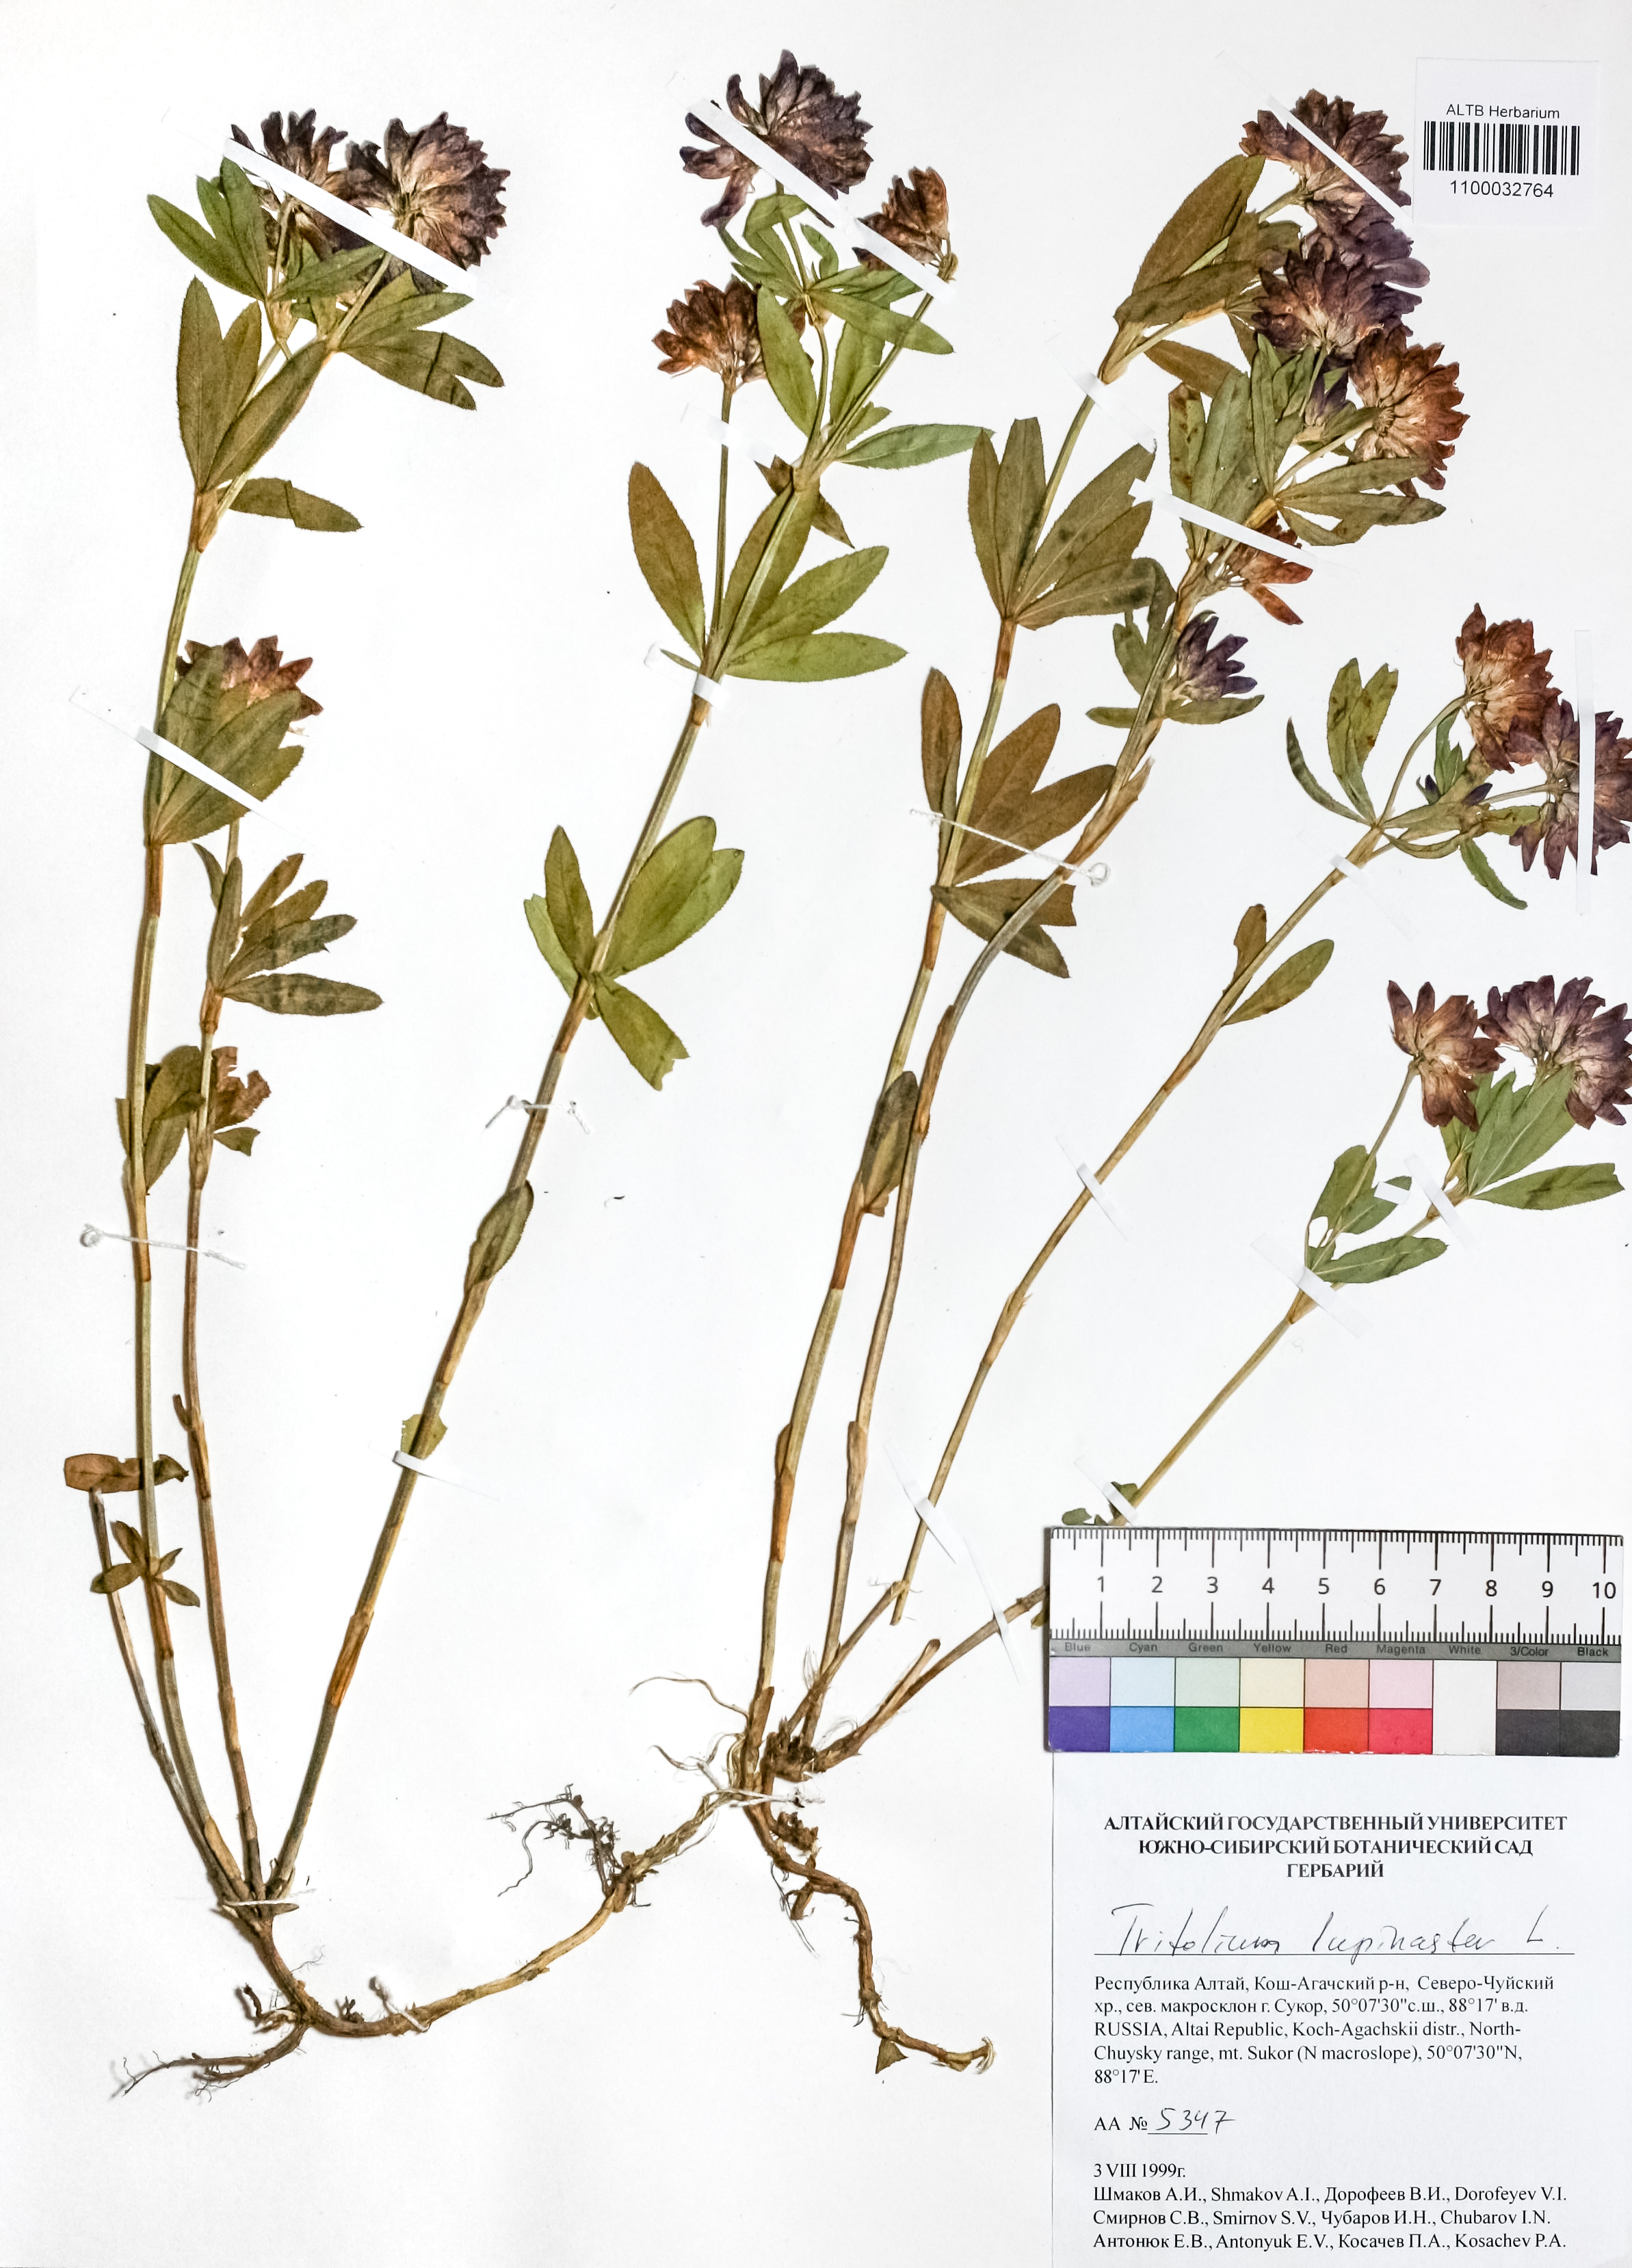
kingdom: Plantae
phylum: Tracheophyta
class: Magnoliopsida
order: Fabales
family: Fabaceae
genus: Trifolium
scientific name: Trifolium lupinaster
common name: Lupine clover
